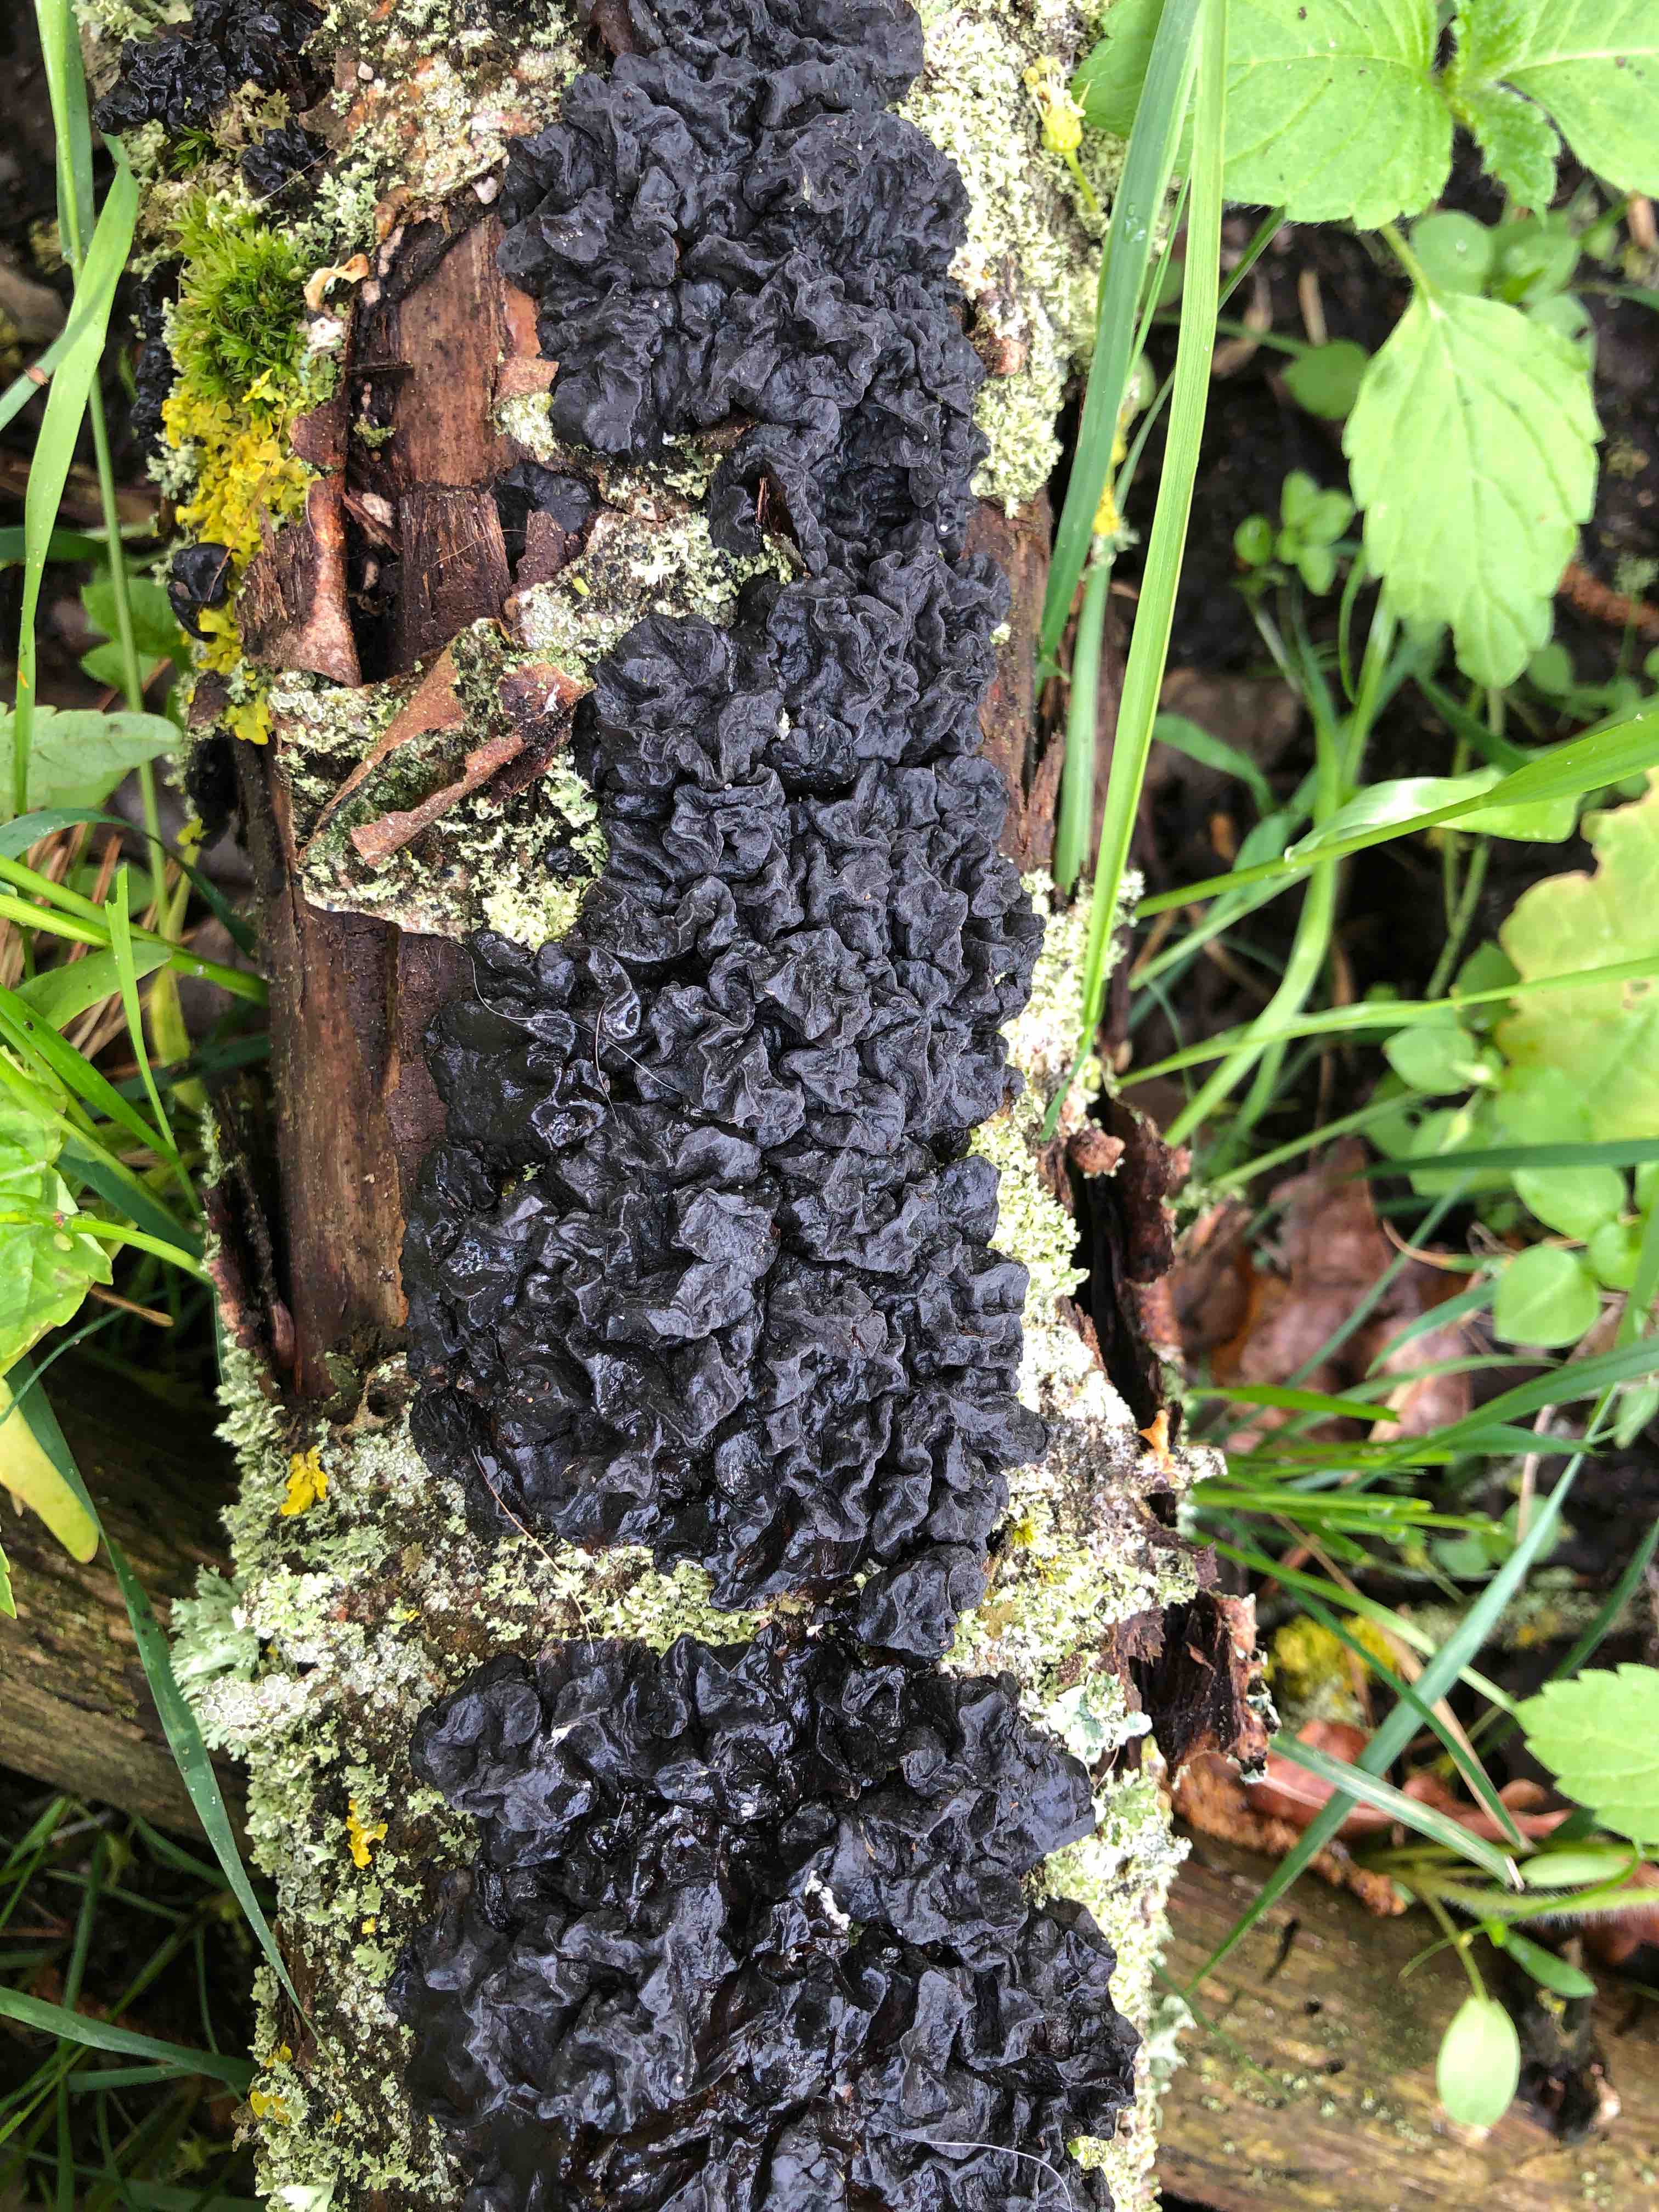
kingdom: Fungi
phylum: Basidiomycota
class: Agaricomycetes
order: Auriculariales
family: Auriculariaceae
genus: Exidia
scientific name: Exidia nigricans
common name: almindelig bævretop
